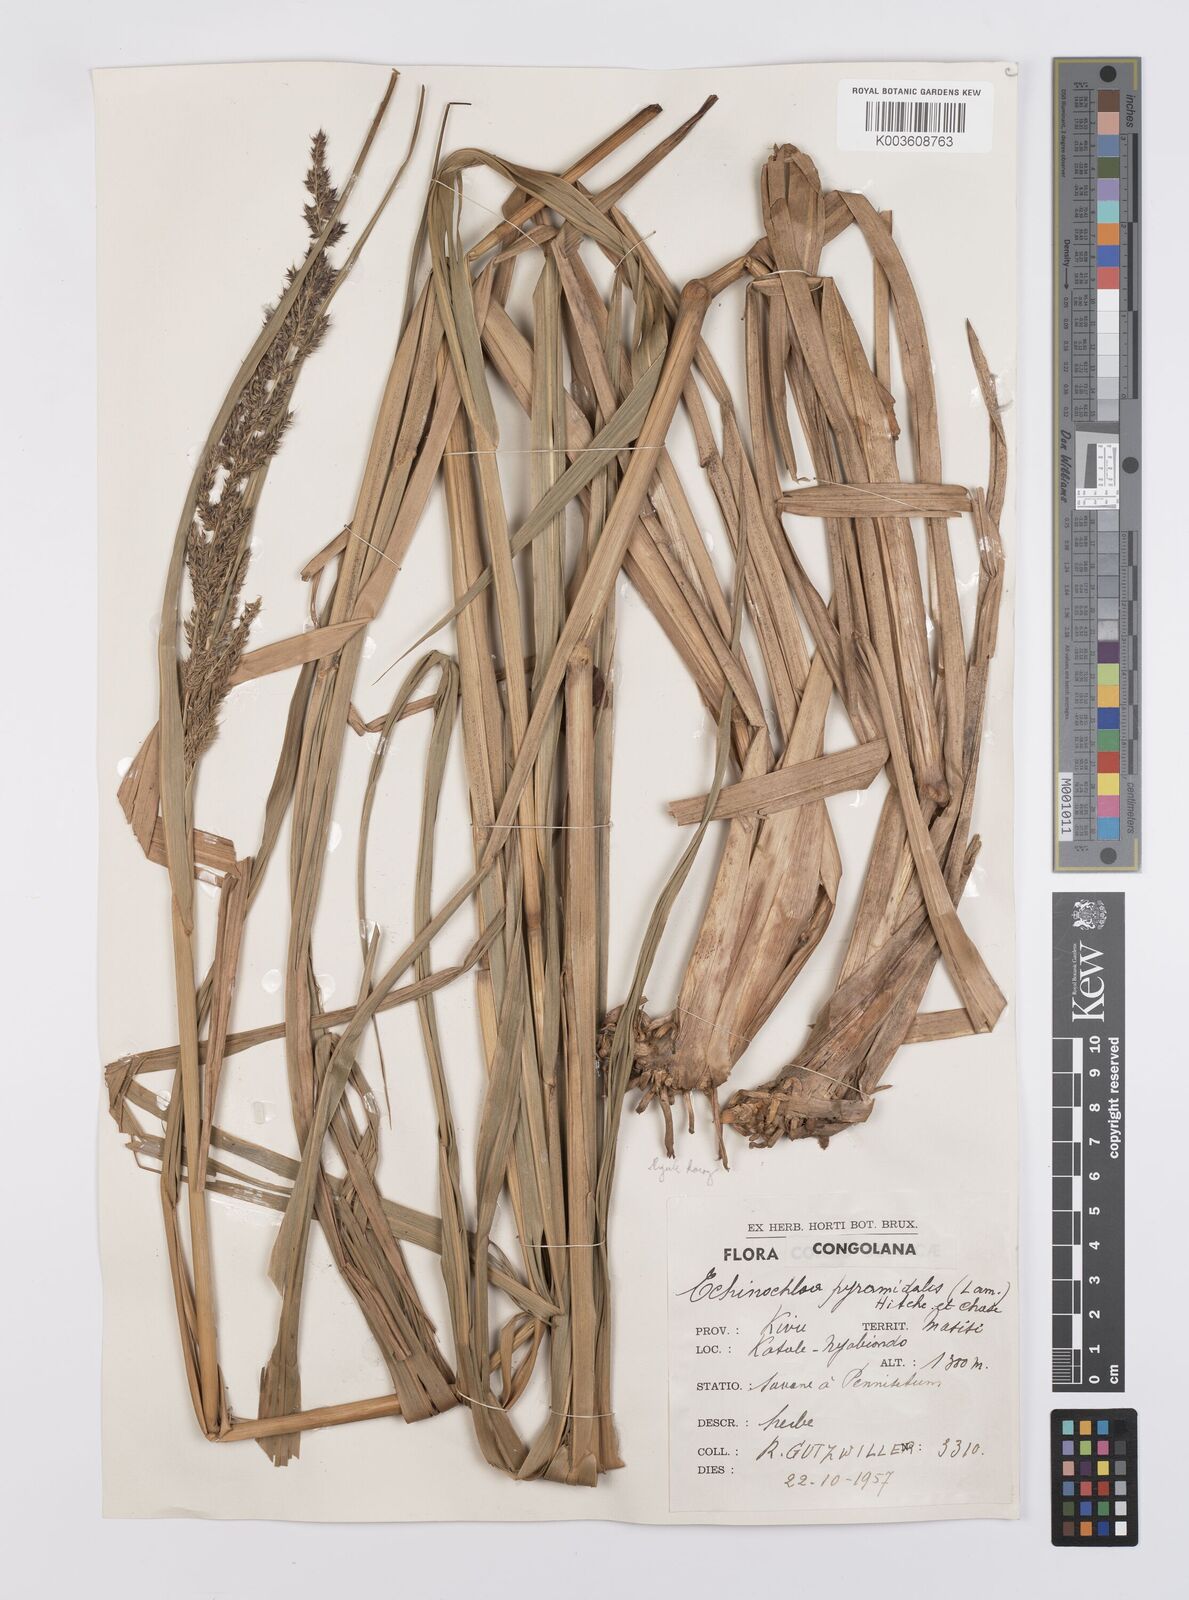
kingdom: Plantae
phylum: Tracheophyta
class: Liliopsida
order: Poales
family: Poaceae
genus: Echinochloa
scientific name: Echinochloa pyramidalis
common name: Antelope grass
